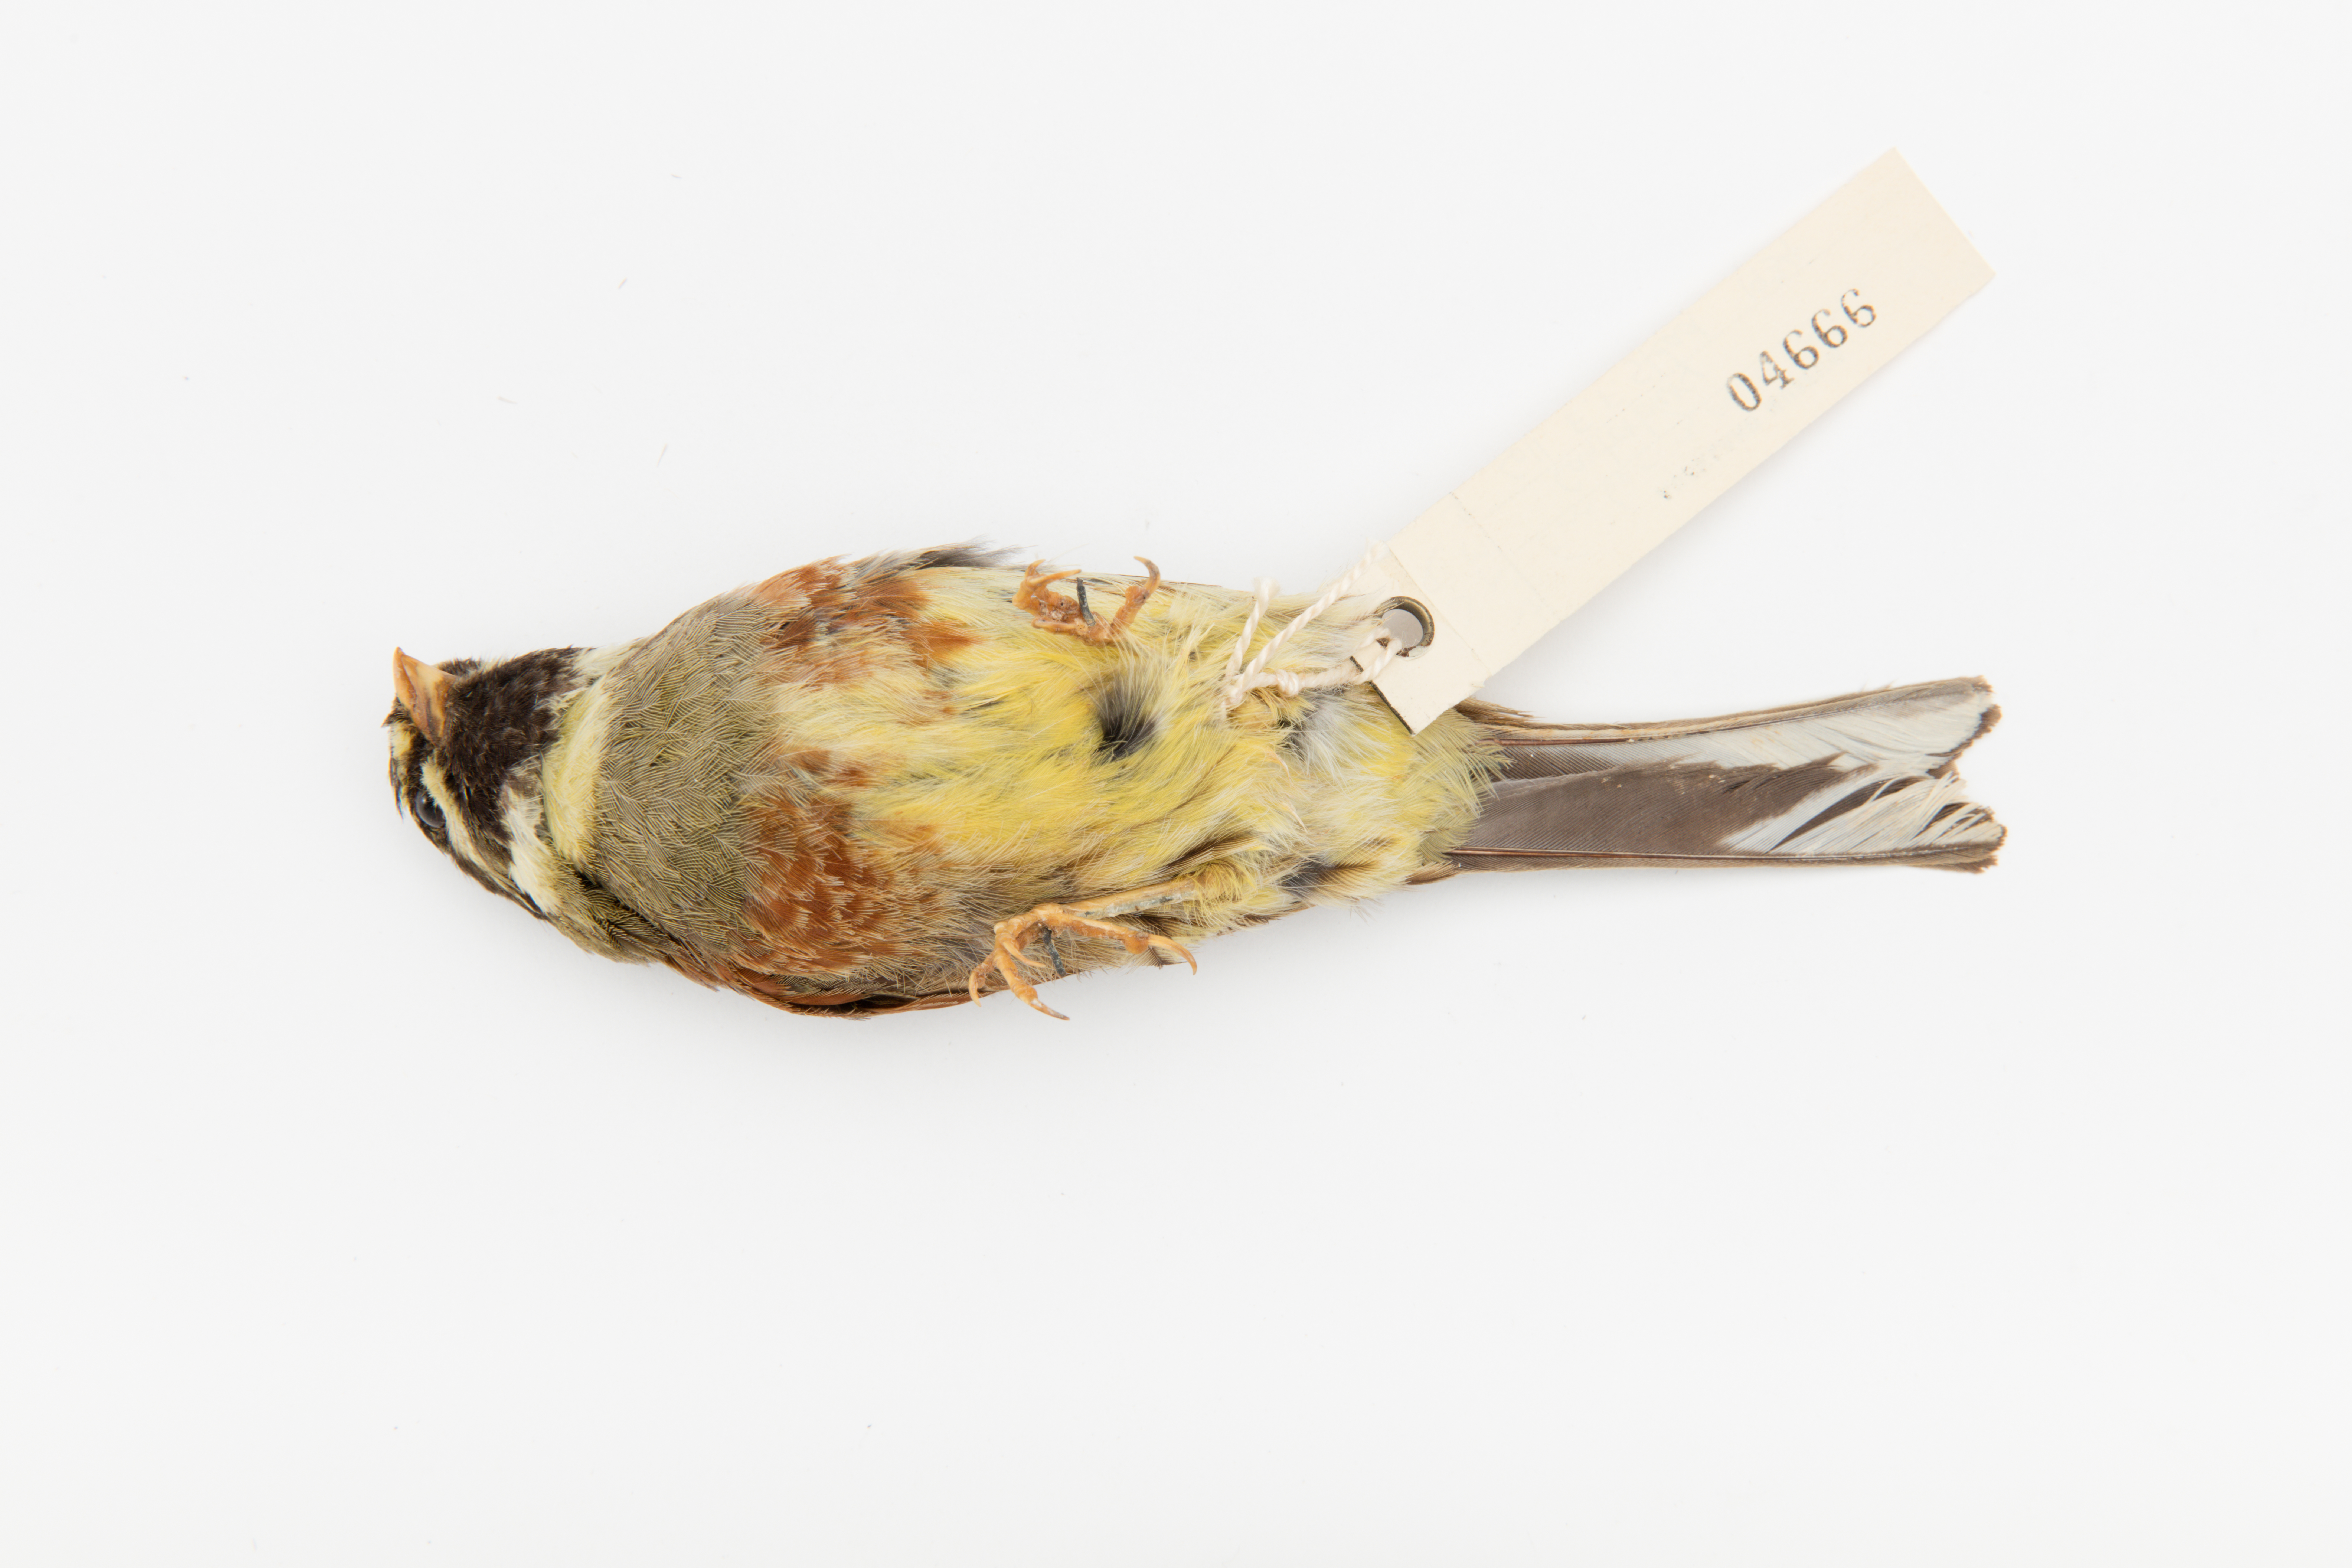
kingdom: Animalia
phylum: Chordata
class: Aves
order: Passeriformes
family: Emberizidae
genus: Emberiza
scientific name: Emberiza cirlus
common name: Cirl bunting
